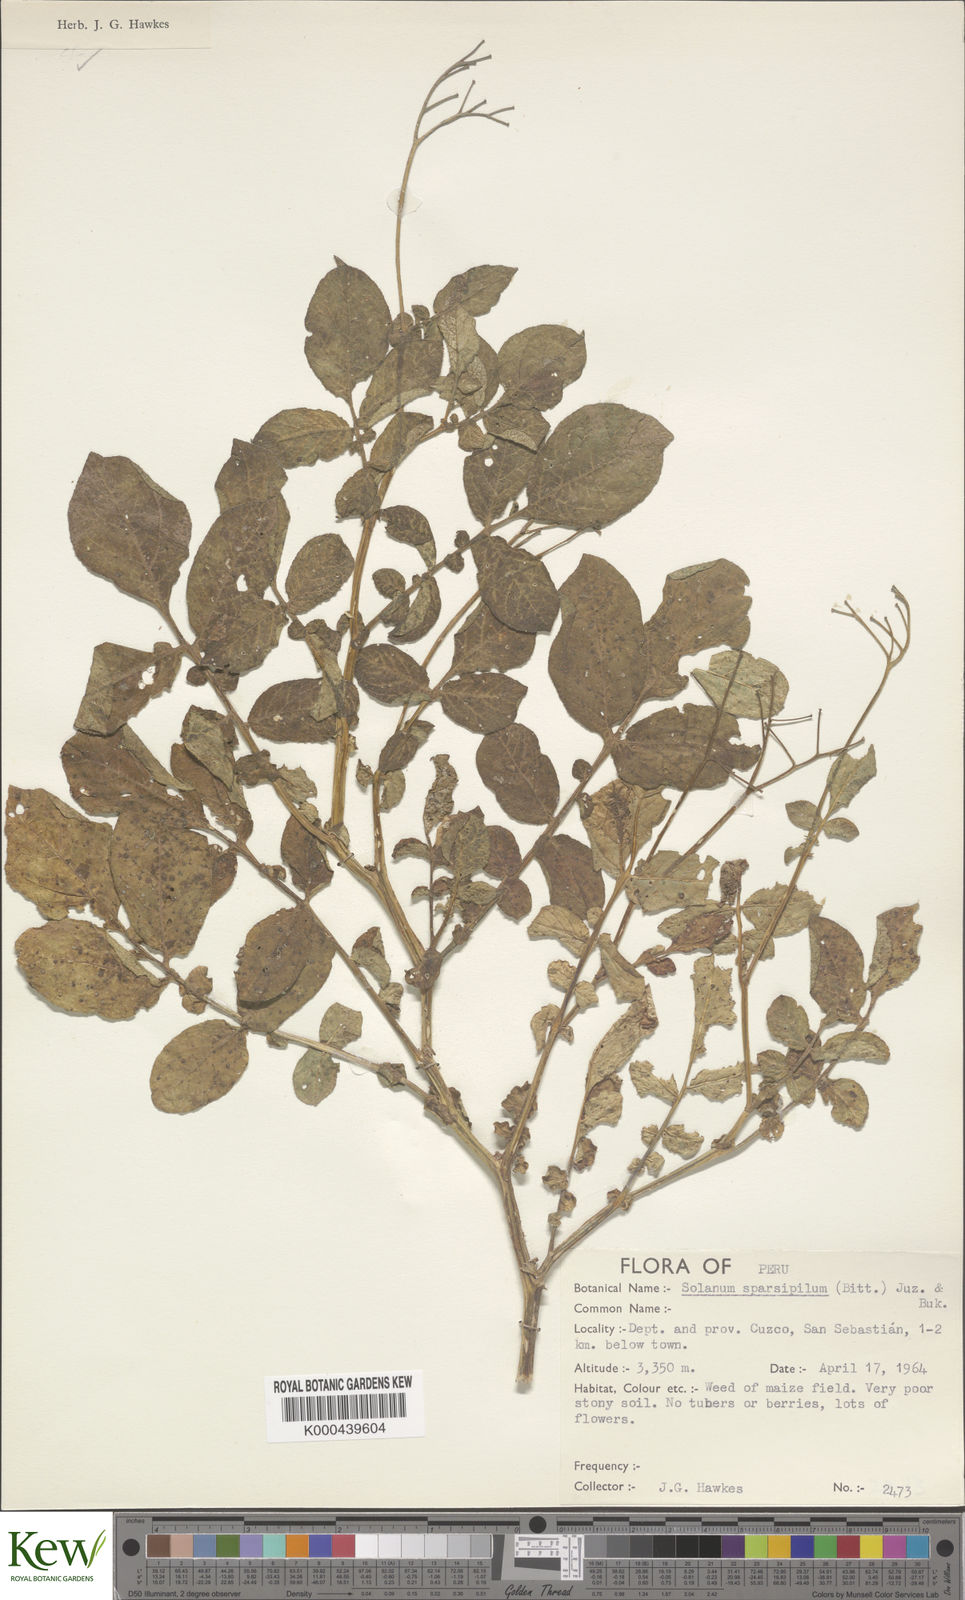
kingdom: Plantae
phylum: Tracheophyta
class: Magnoliopsida
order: Solanales
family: Solanaceae
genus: Solanum
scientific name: Solanum brevicaule
